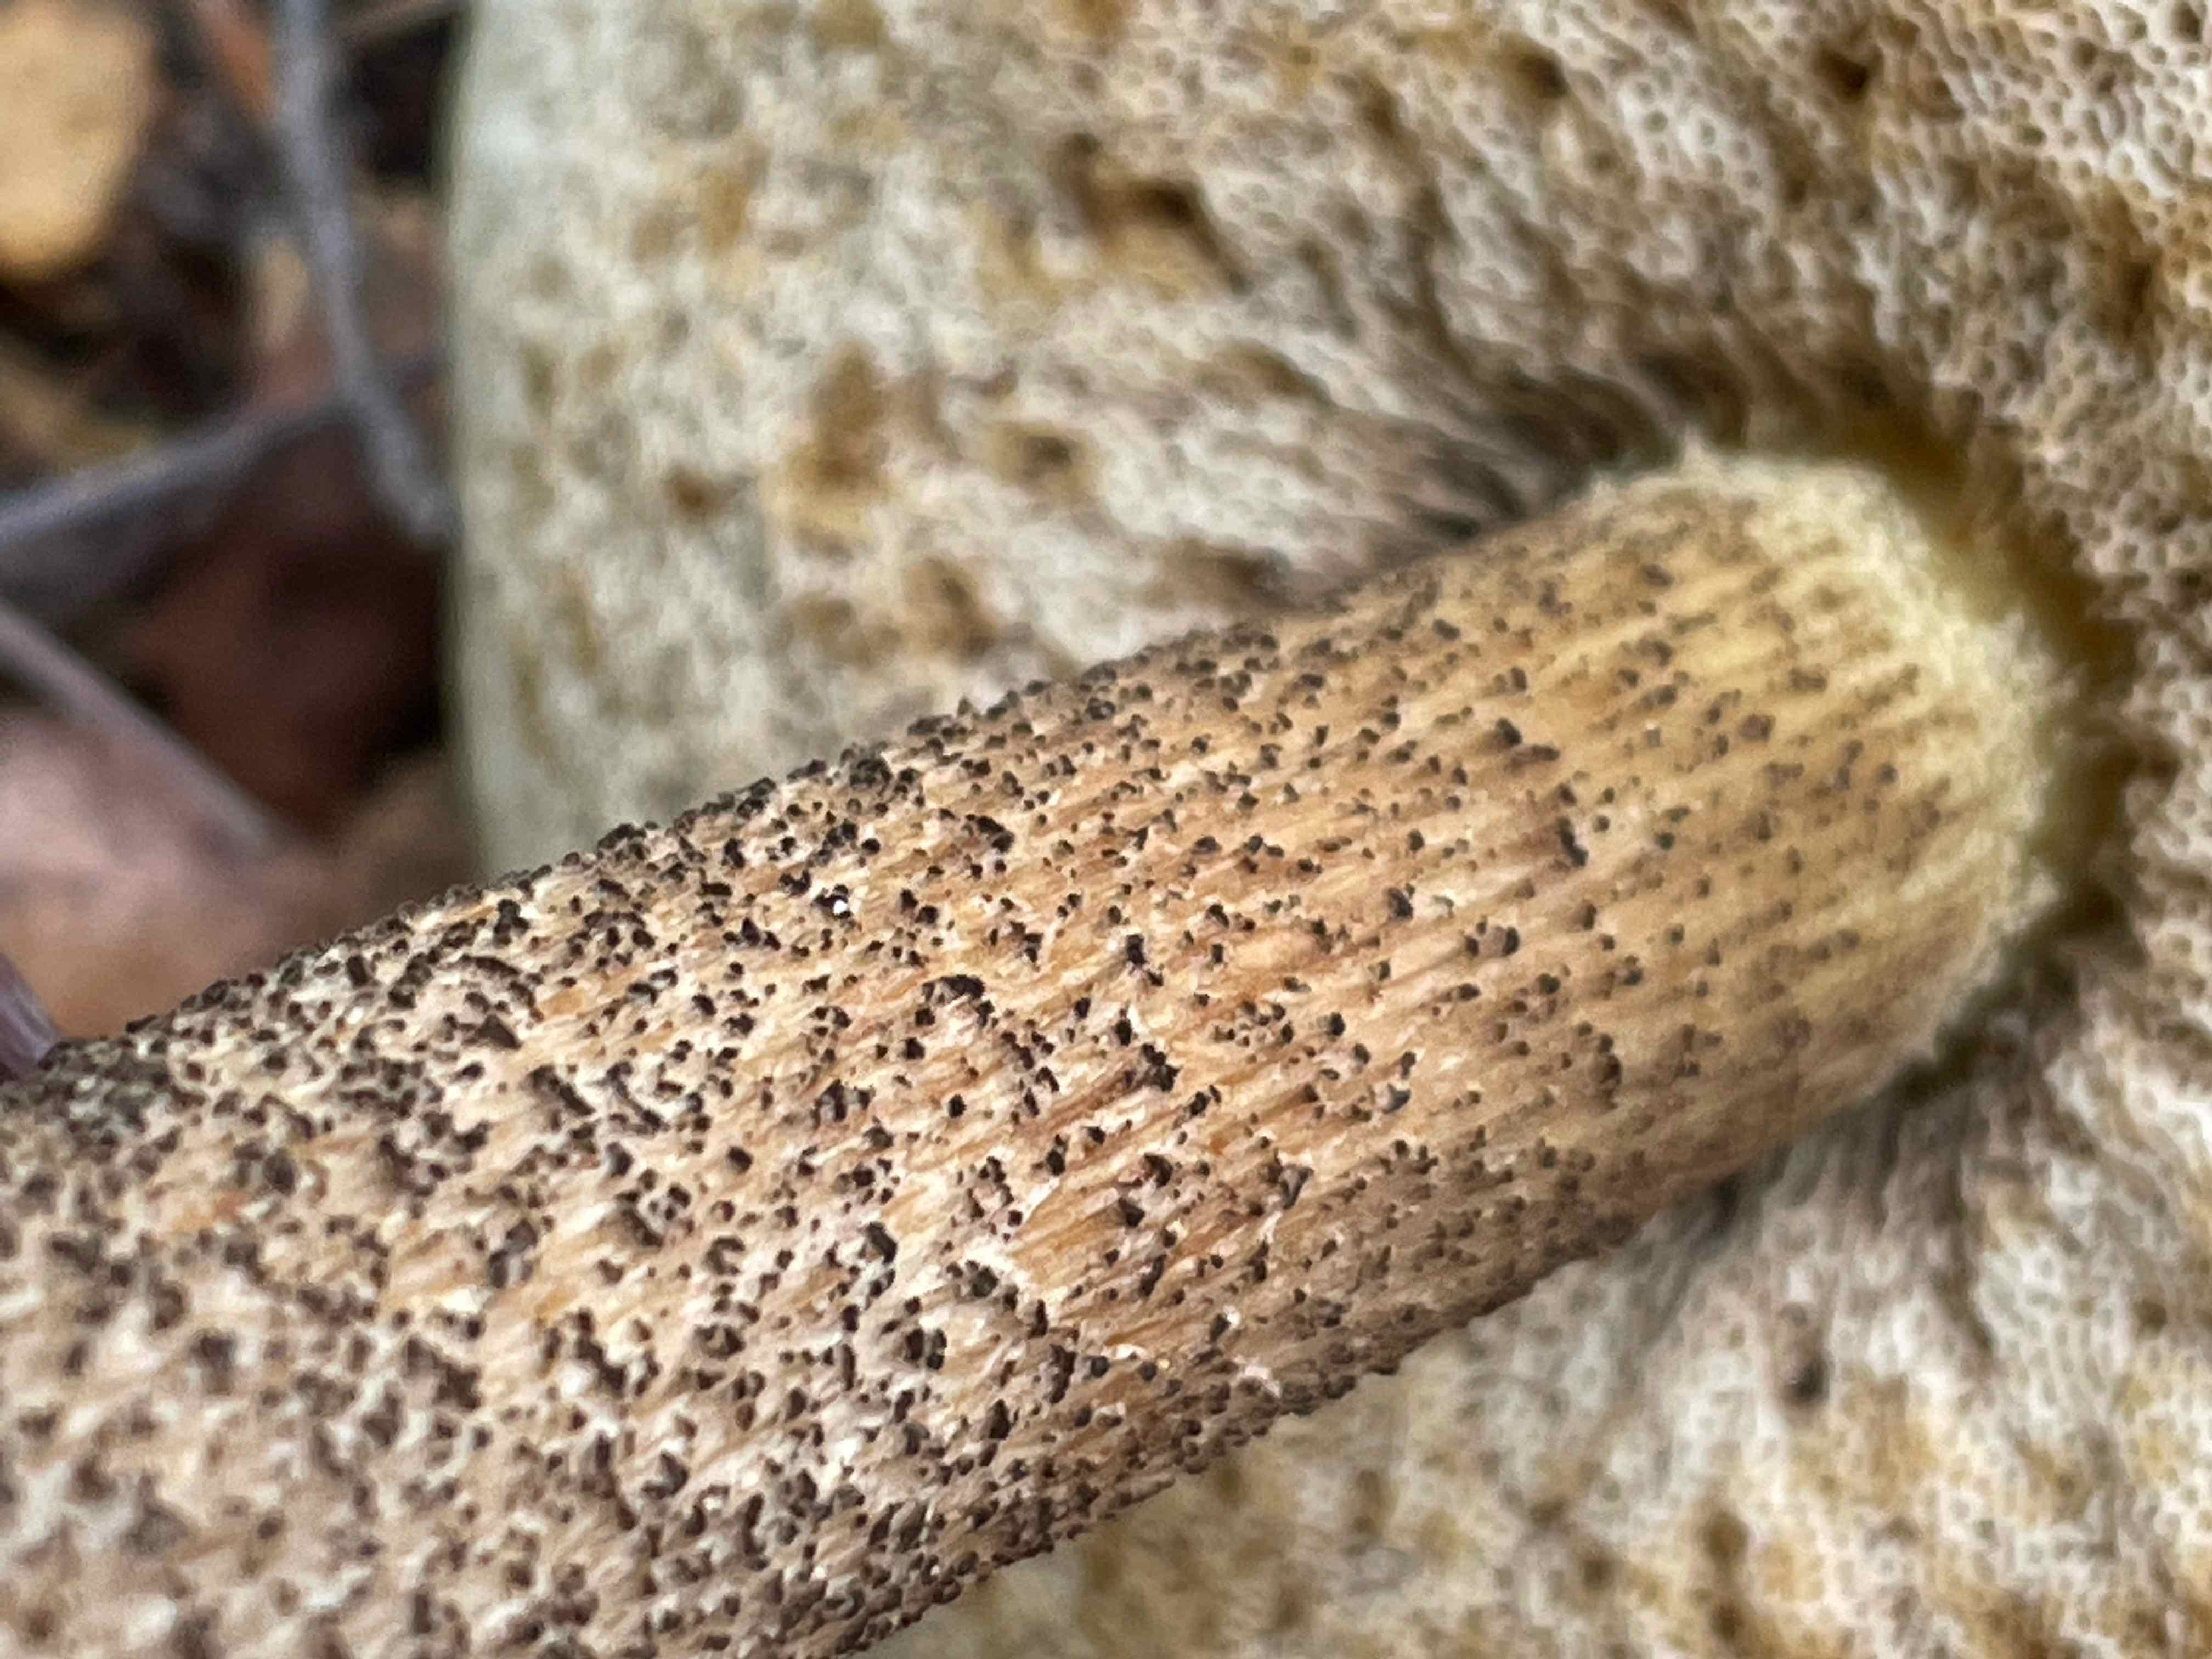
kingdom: Fungi
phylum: Basidiomycota
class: Agaricomycetes
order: Boletales
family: Boletaceae
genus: Leccinum
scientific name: Leccinum scabrum
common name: brun skælrørhat
